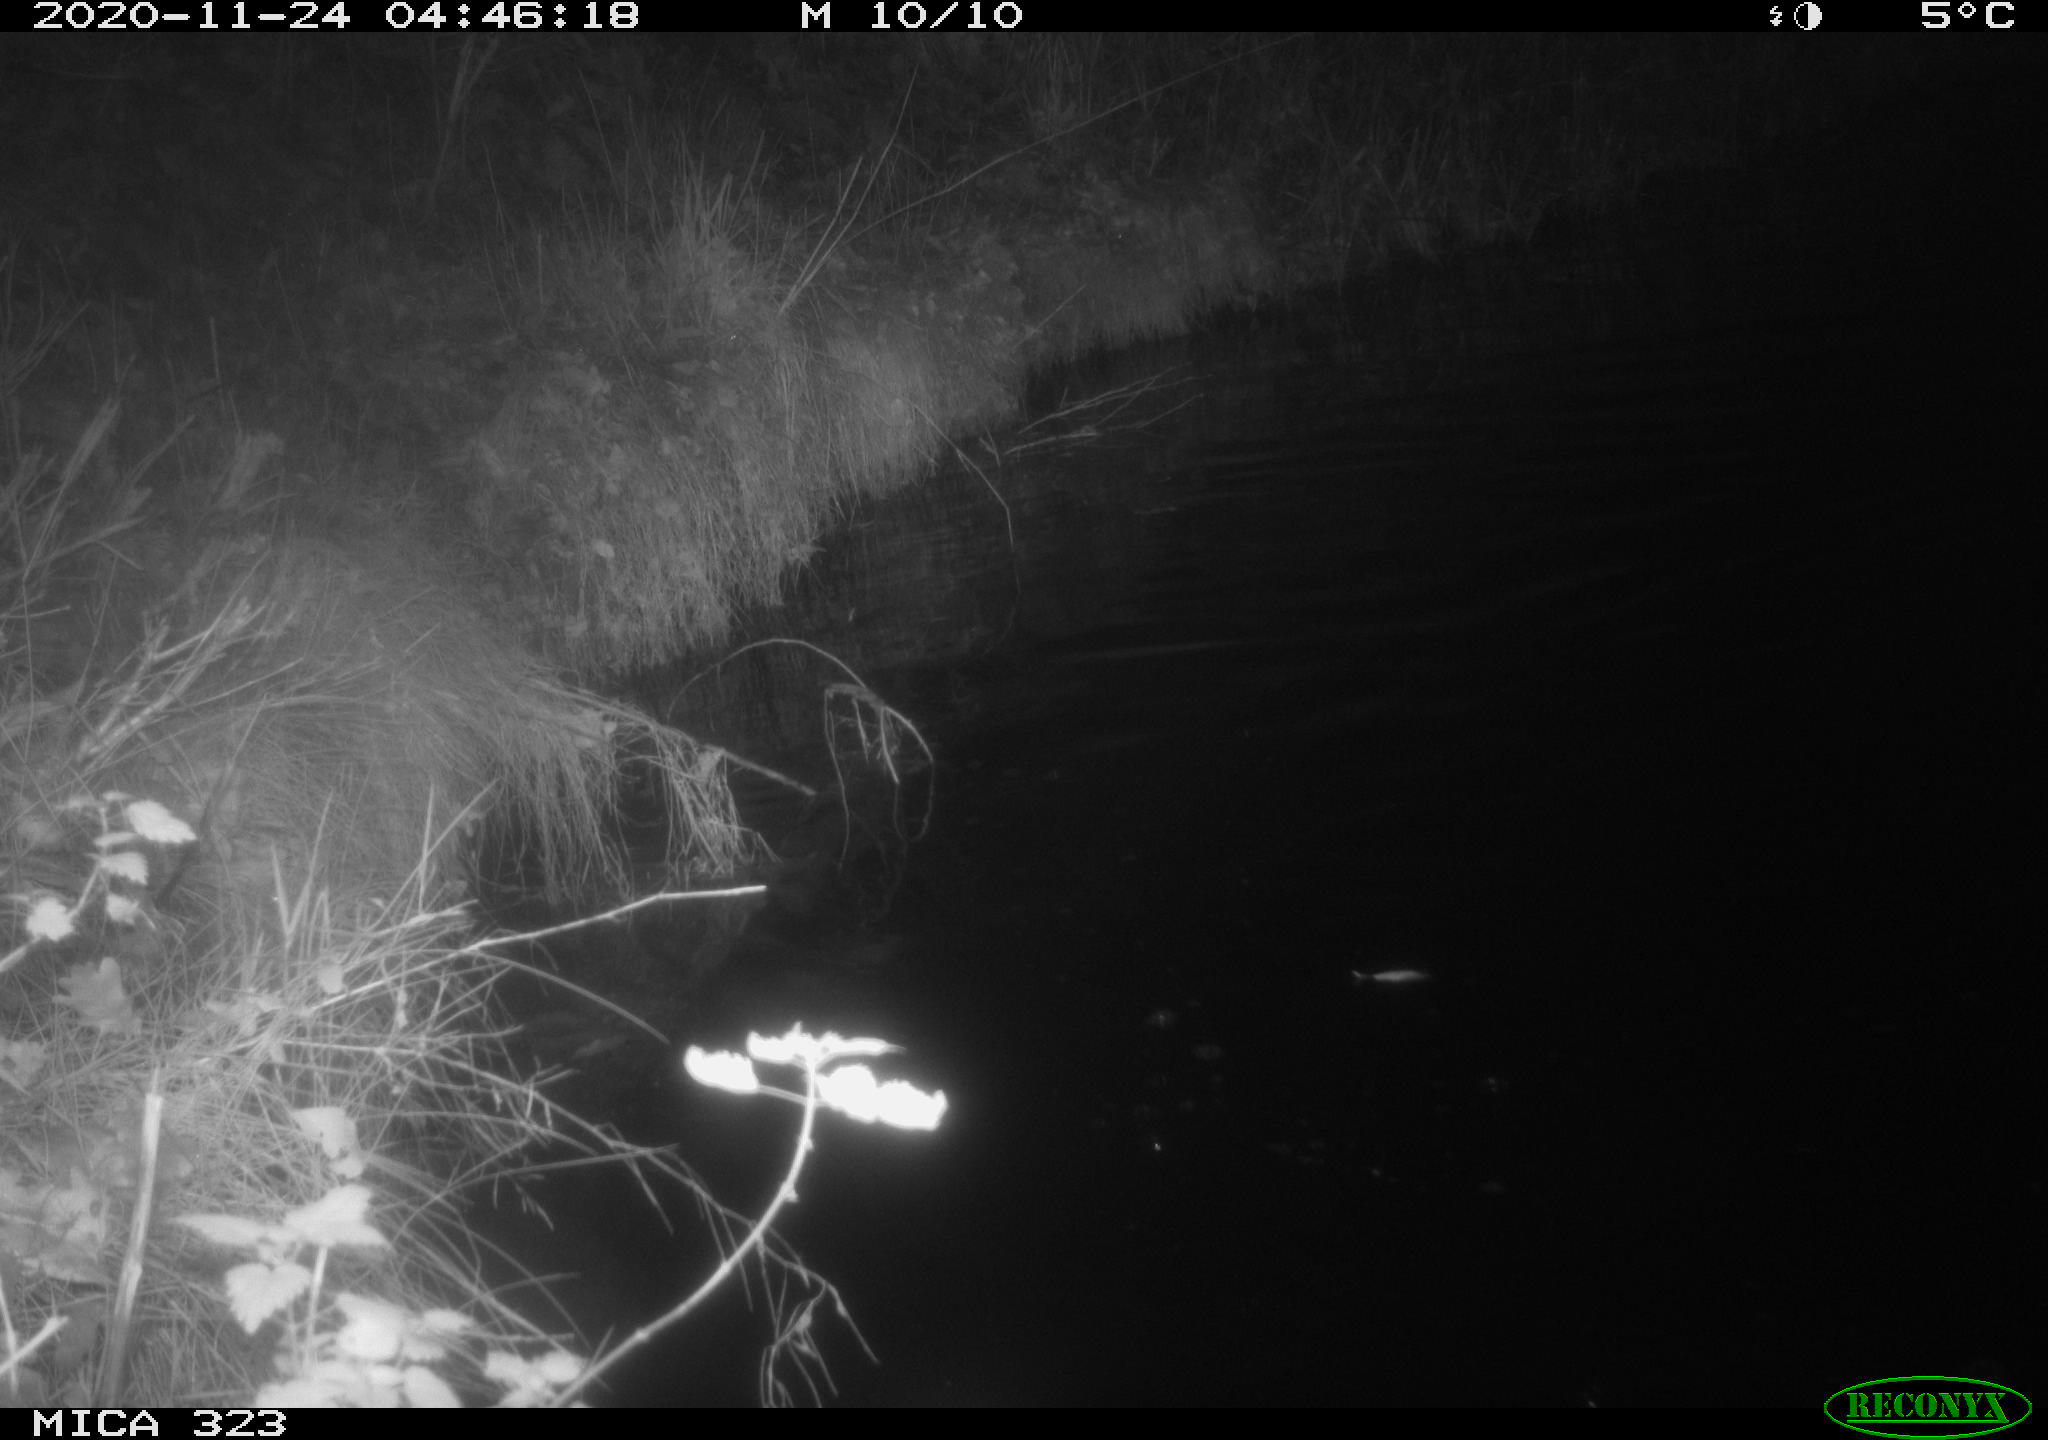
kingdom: Animalia
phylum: Chordata
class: Aves
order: Anseriformes
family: Anatidae
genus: Anas
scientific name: Anas platyrhynchos
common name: Mallard
